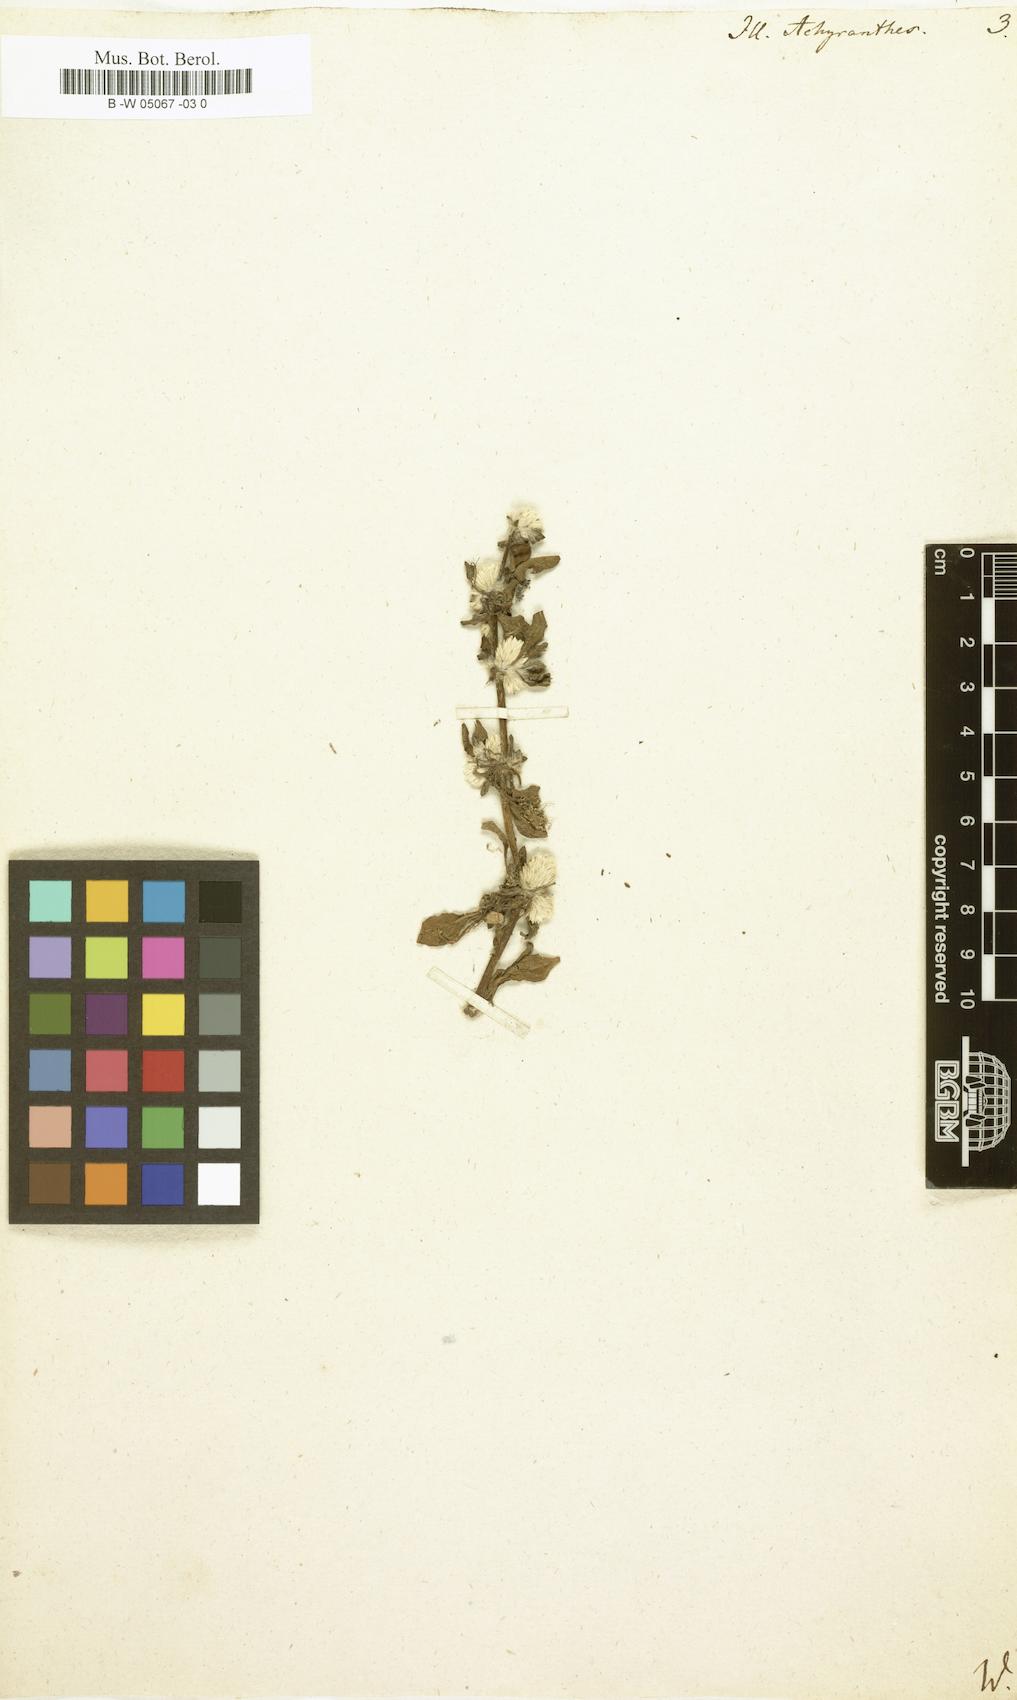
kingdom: Plantae
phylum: Tracheophyta
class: Magnoliopsida
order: Caryophyllales
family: Amaranthaceae
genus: Alternanthera
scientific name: Alternanthera pungens
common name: Khakiweed
